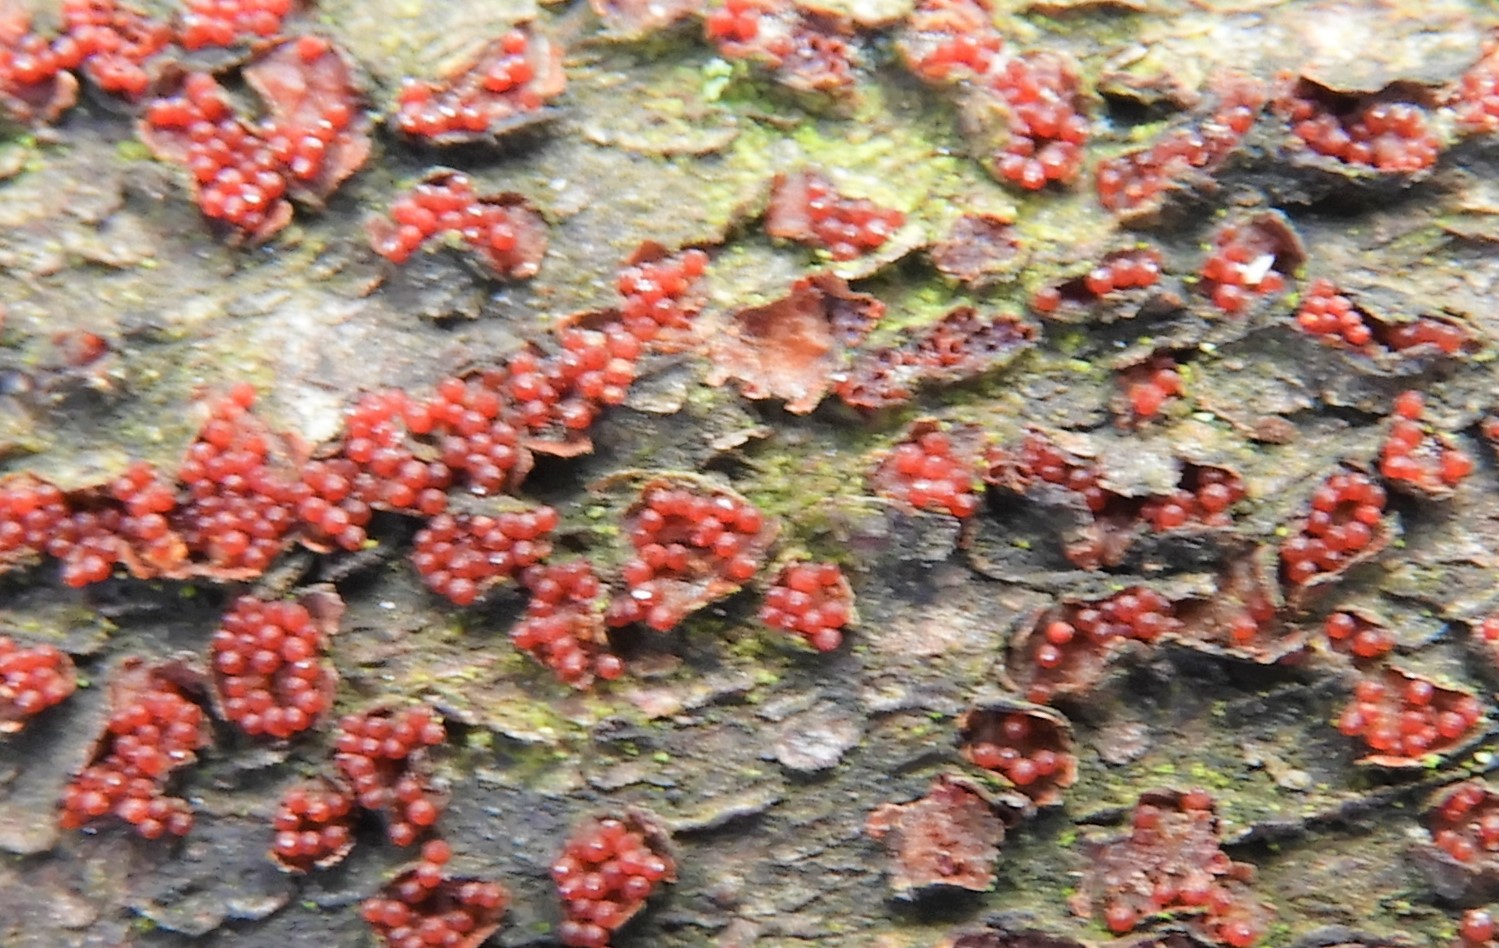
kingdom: Fungi
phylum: Ascomycota
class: Sordariomycetes
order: Hypocreales
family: Nectriaceae
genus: Neonectria
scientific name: Neonectria coccinea
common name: bøgebark-cinnobersvamp
